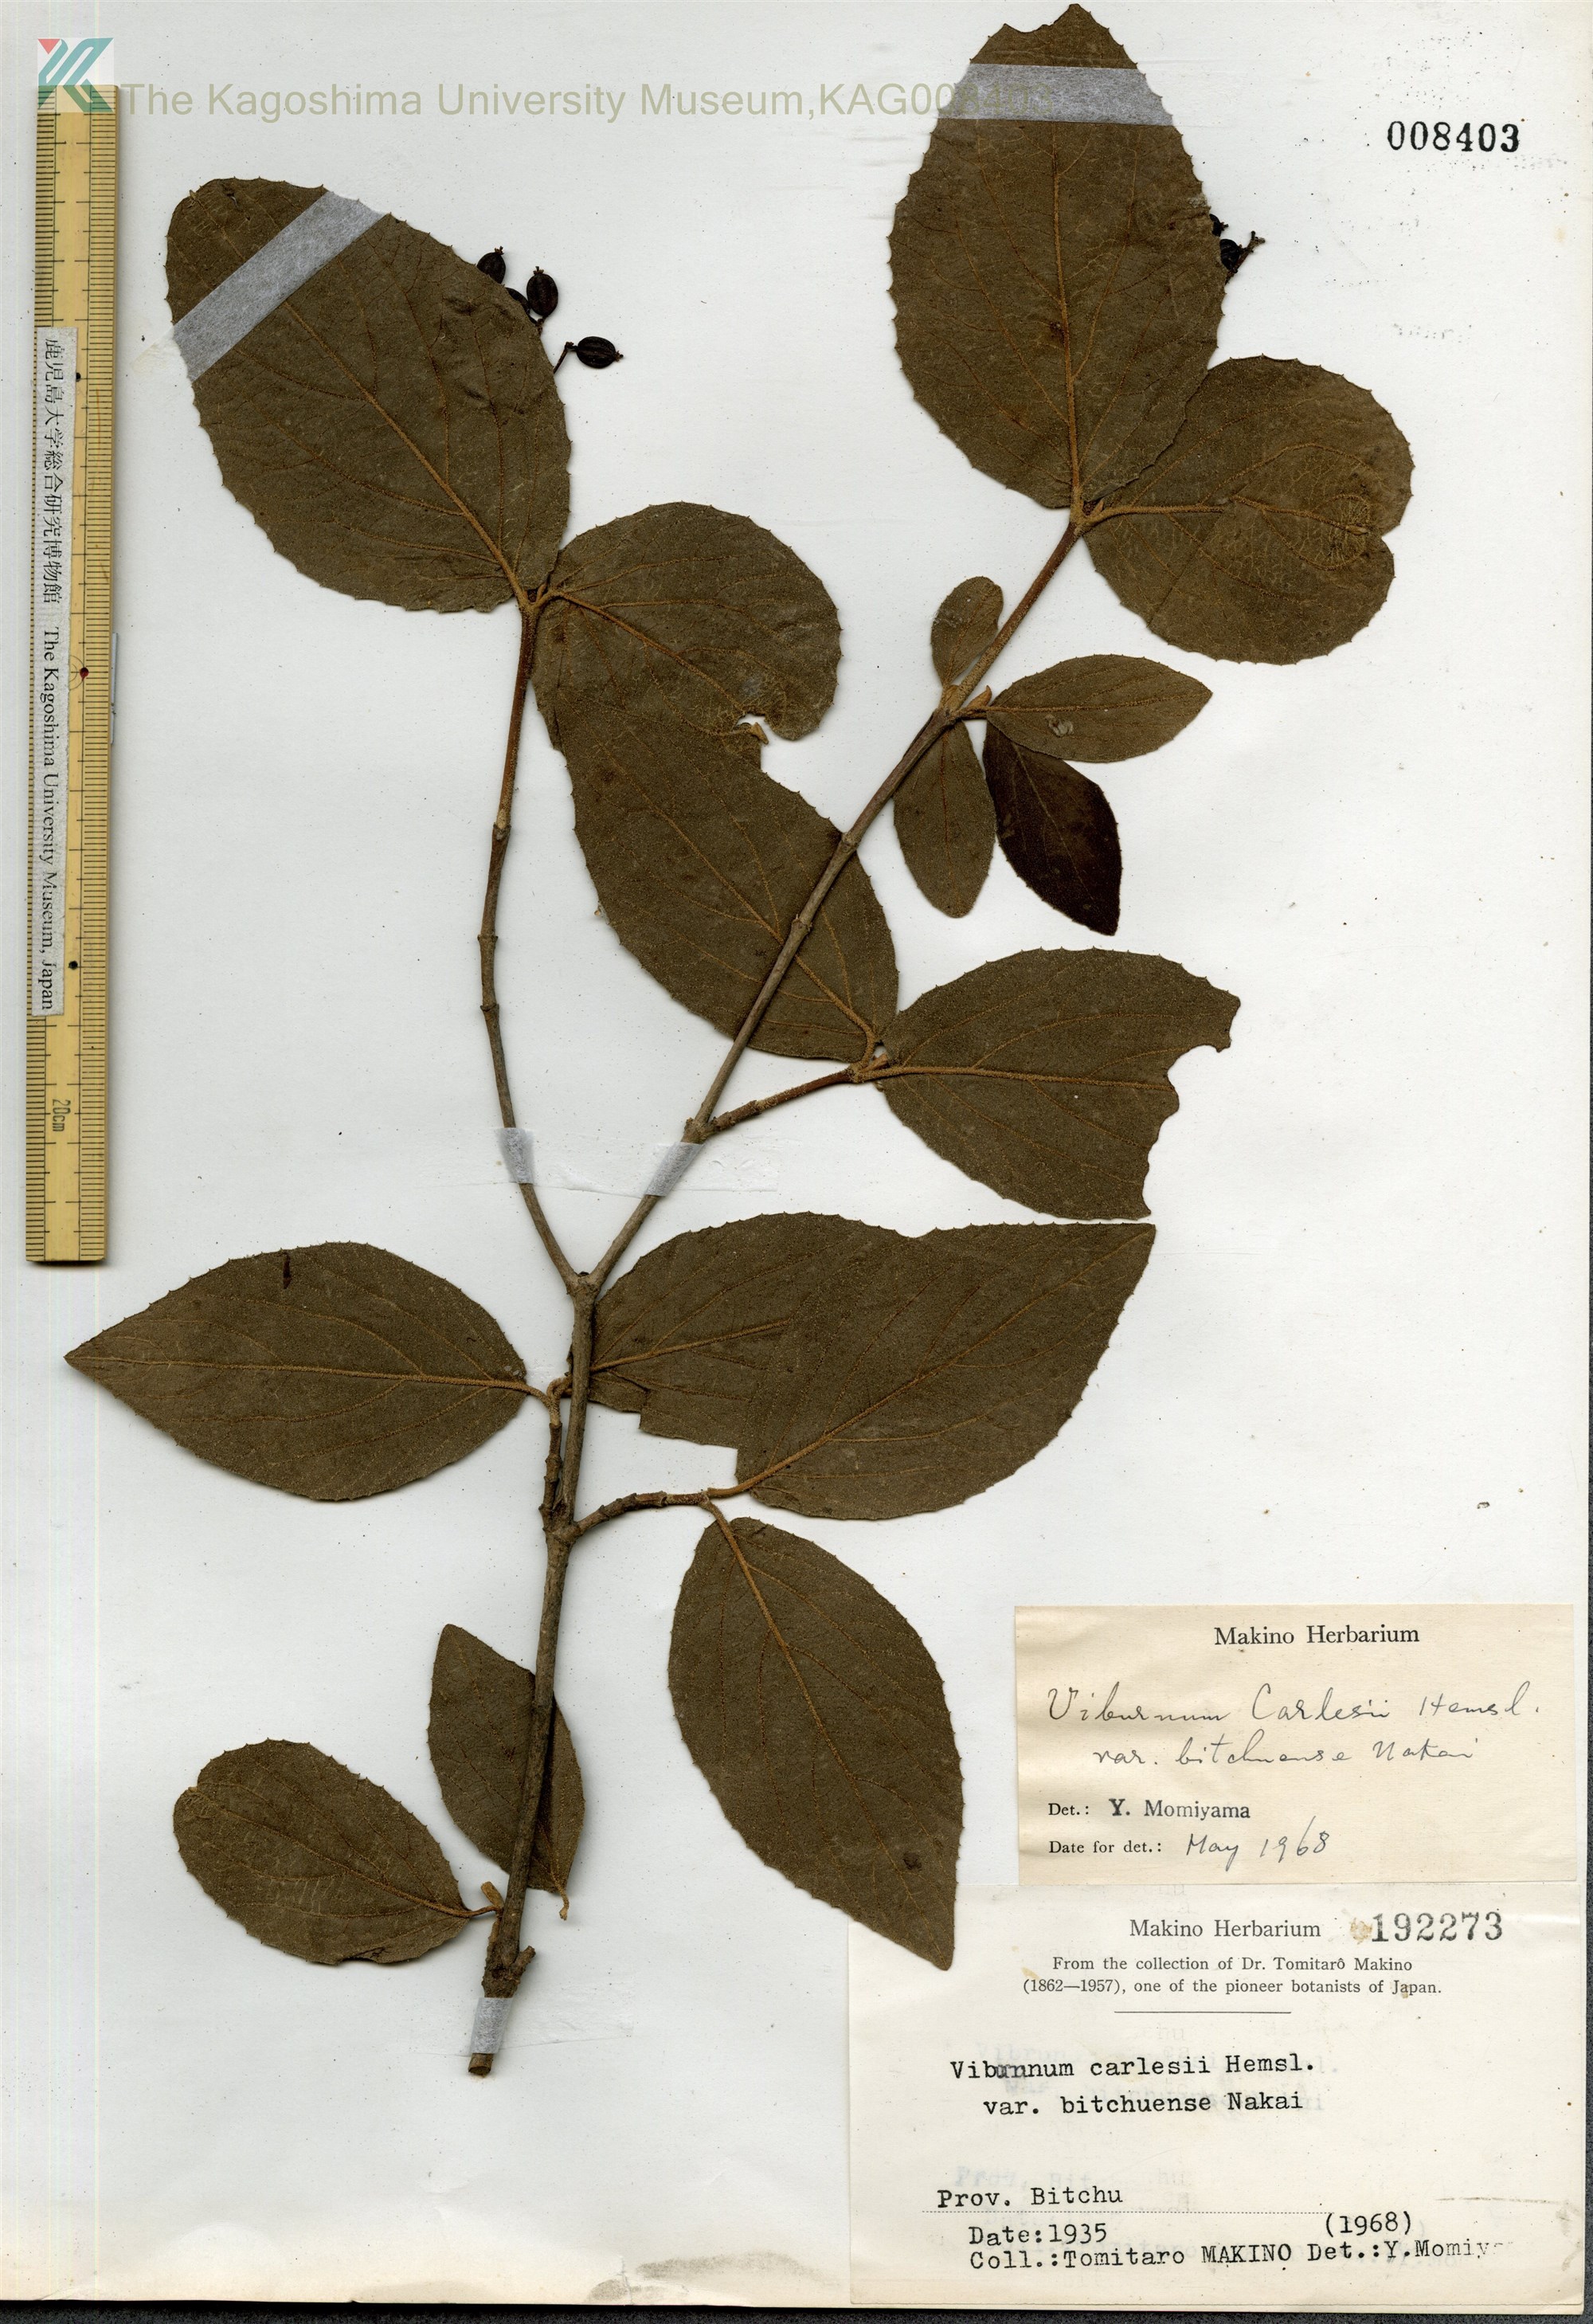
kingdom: Plantae
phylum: Tracheophyta
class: Magnoliopsida
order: Dipsacales
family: Viburnaceae
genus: Viburnum
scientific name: Viburnum carlesii
